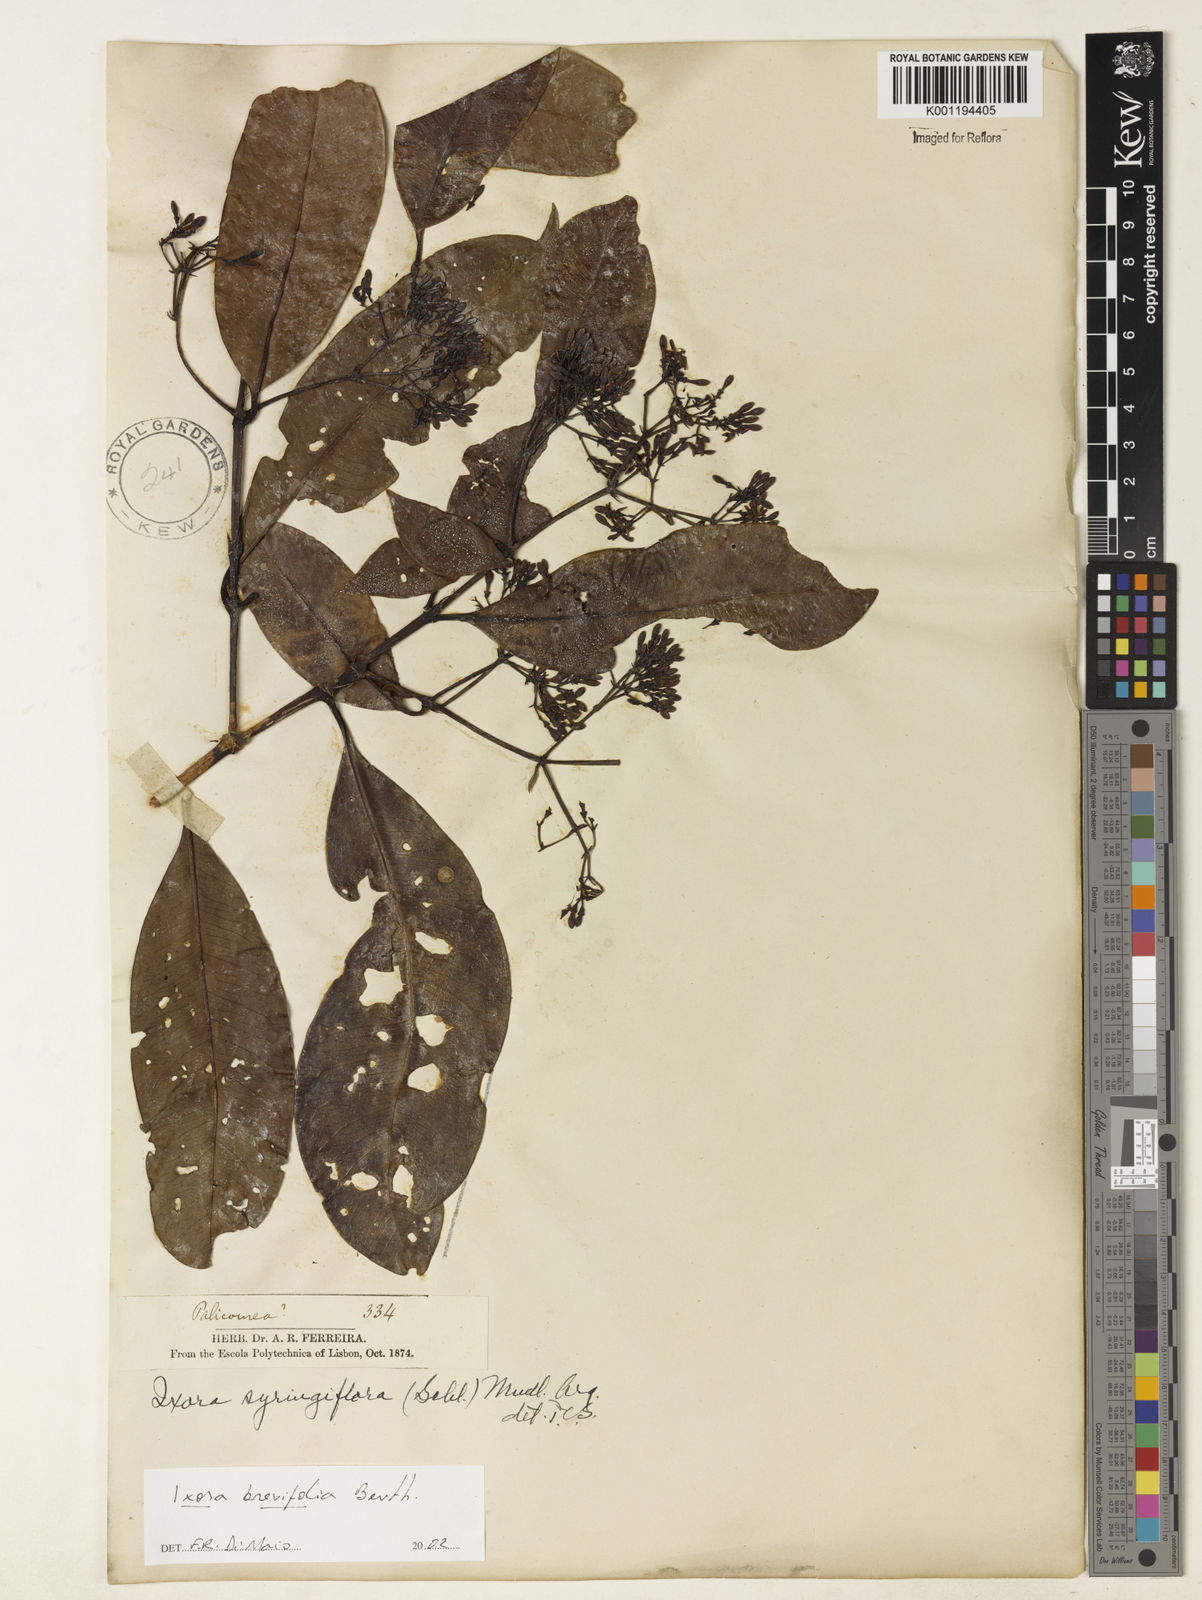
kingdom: Plantae
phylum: Tracheophyta
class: Magnoliopsida
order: Gentianales
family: Rubiaceae
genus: Ixora
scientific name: Ixora brevifolia
